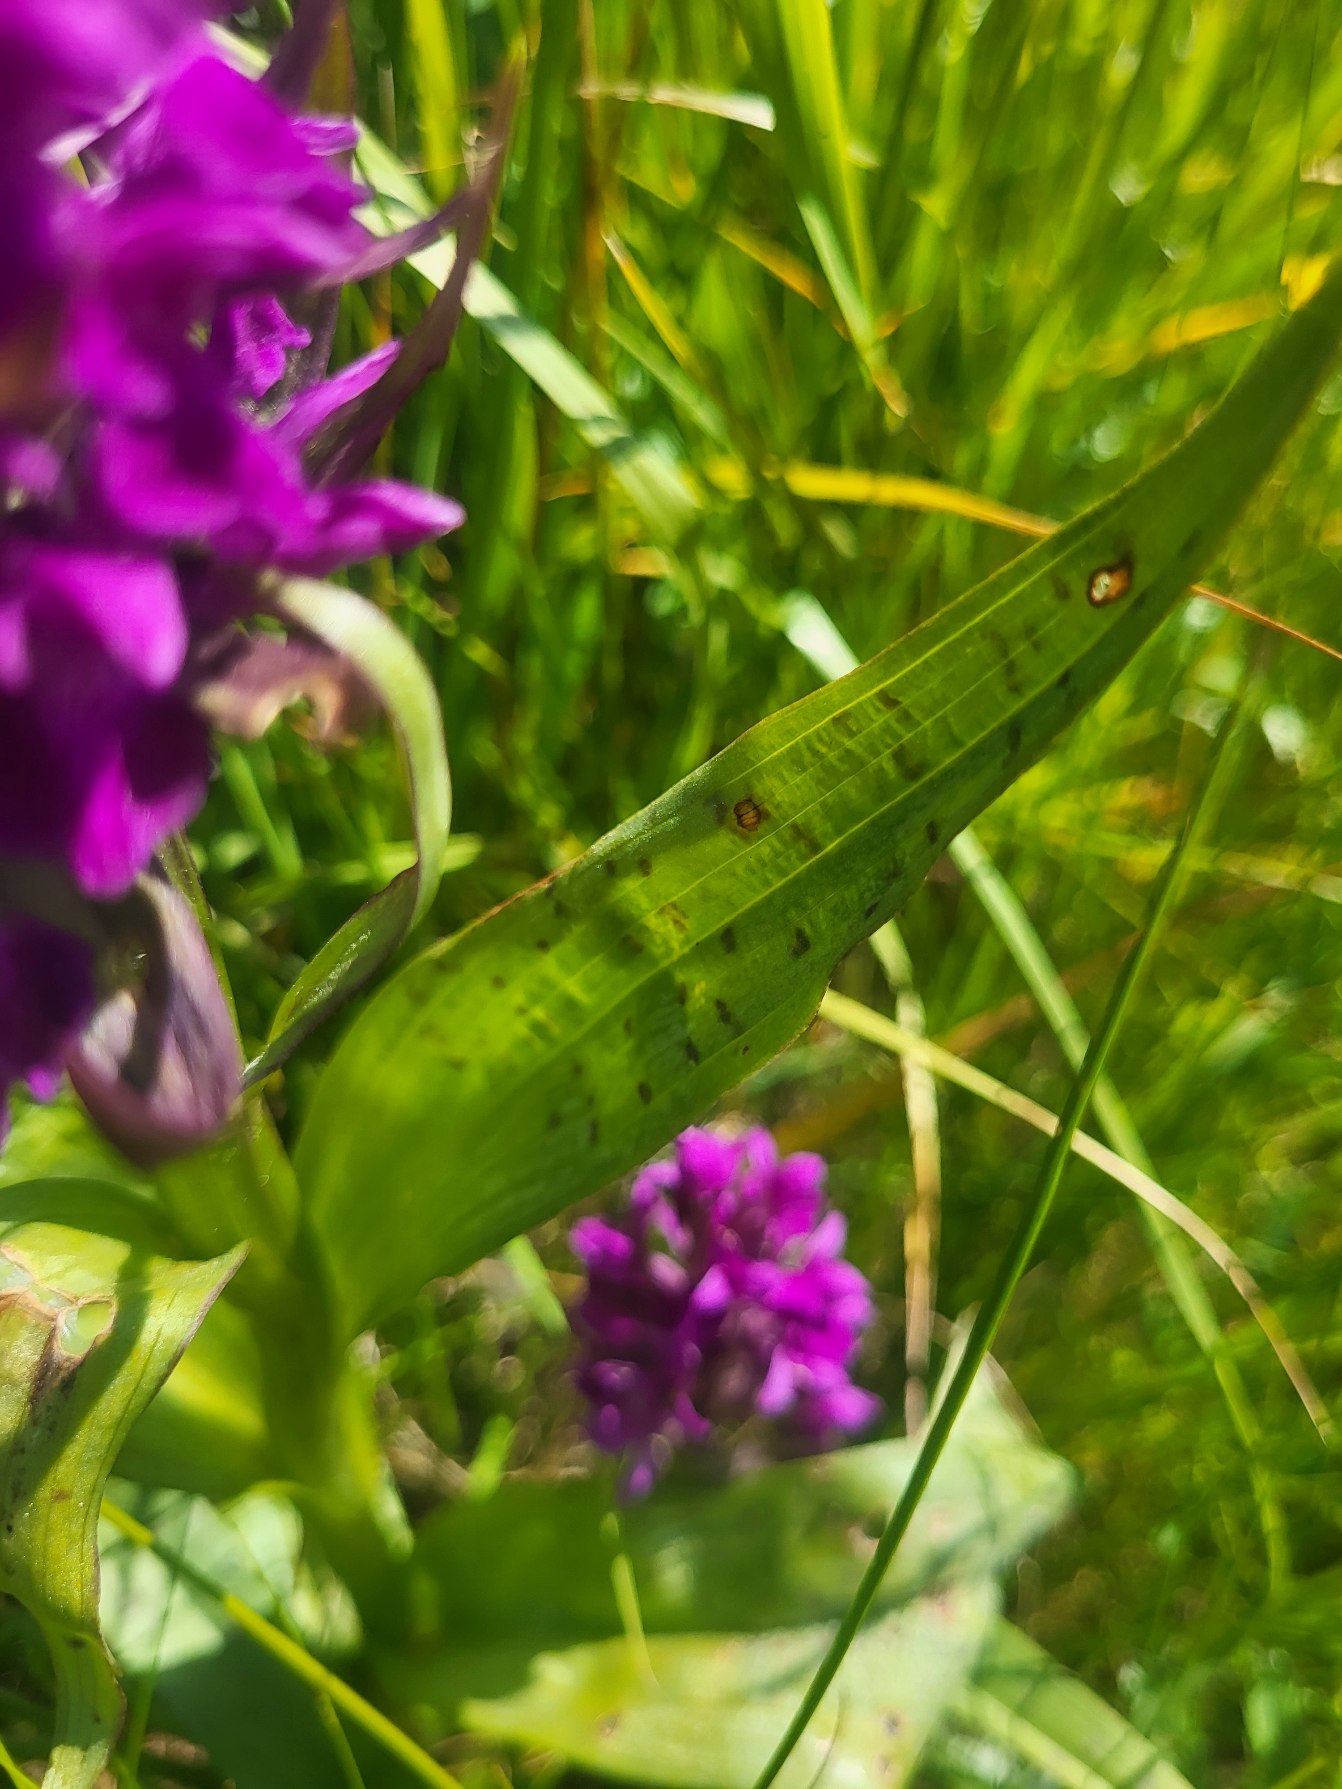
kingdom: Plantae
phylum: Tracheophyta
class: Liliopsida
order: Asparagales
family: Orchidaceae
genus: Dactylorhiza
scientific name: Dactylorhiza majalis
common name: Maj-gøgeurt
